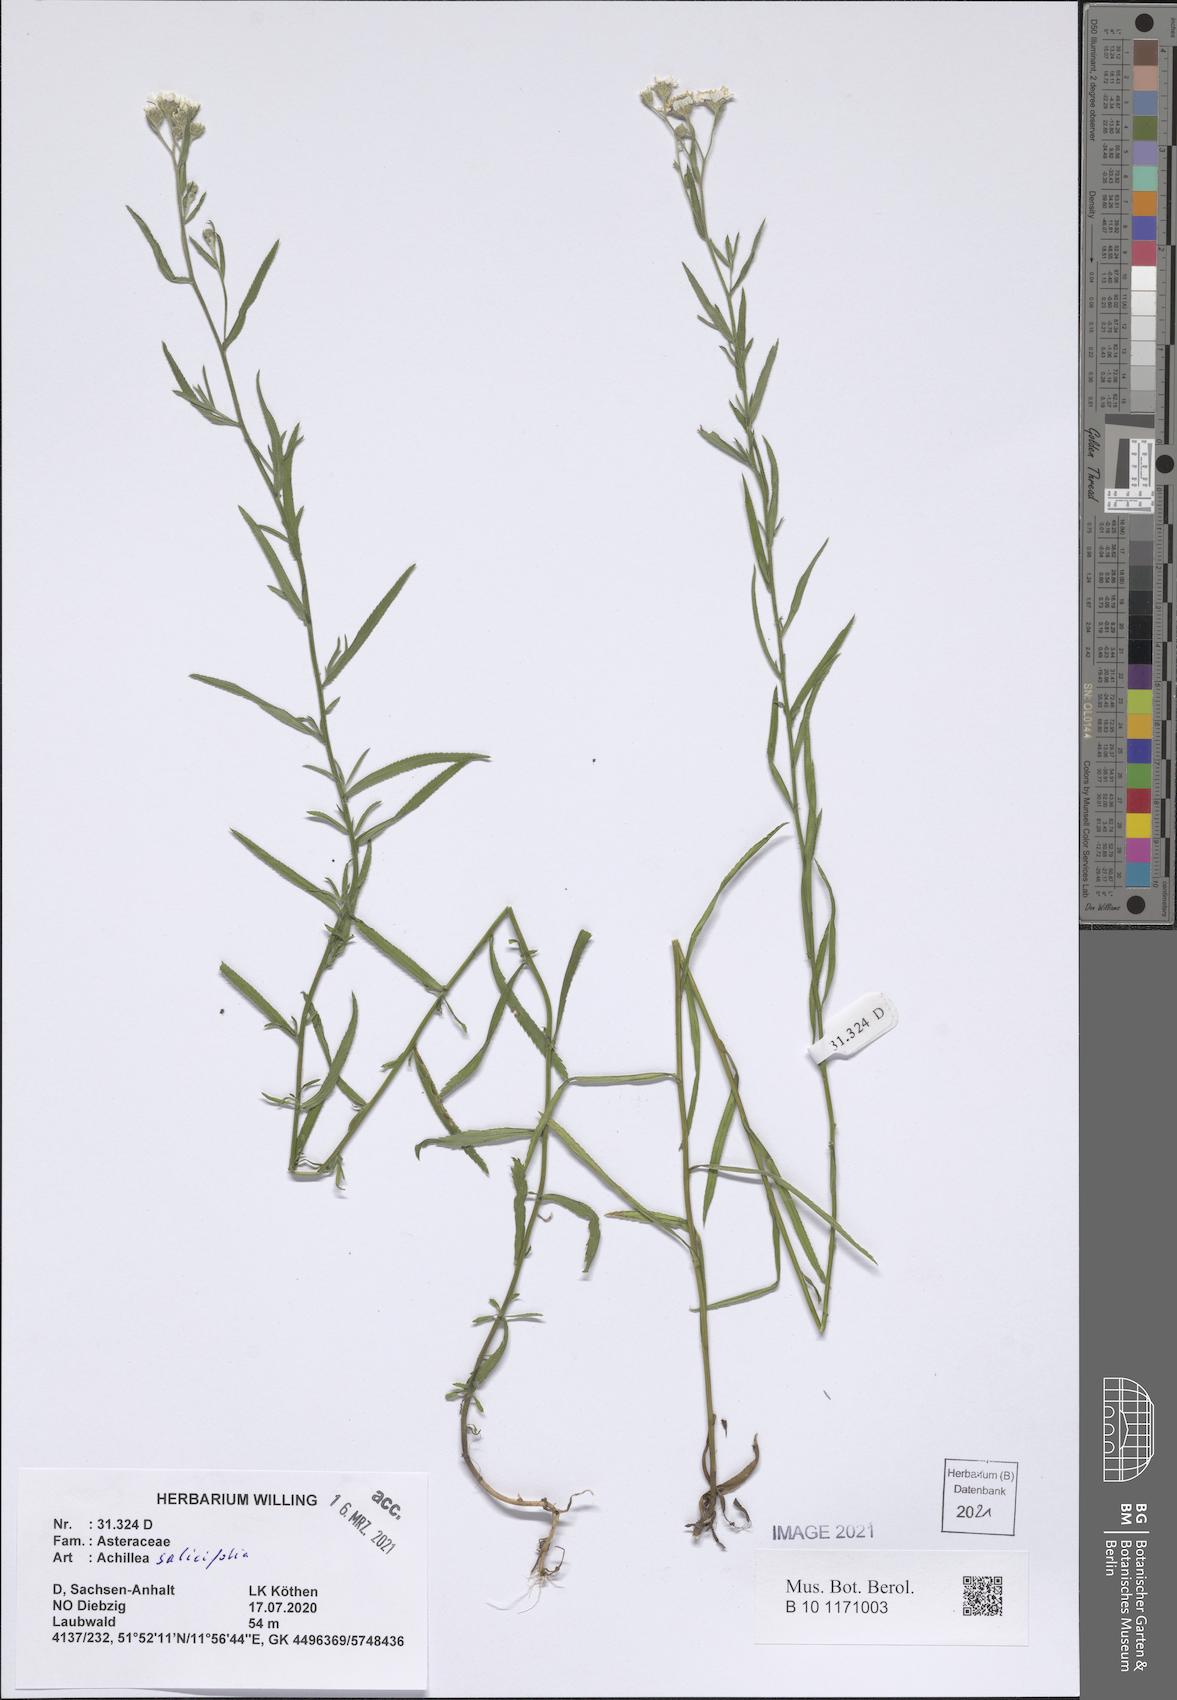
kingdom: Plantae
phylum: Tracheophyta
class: Magnoliopsida
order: Asterales
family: Asteraceae
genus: Achillea
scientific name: Achillea ptarmica
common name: Sneezeweed
